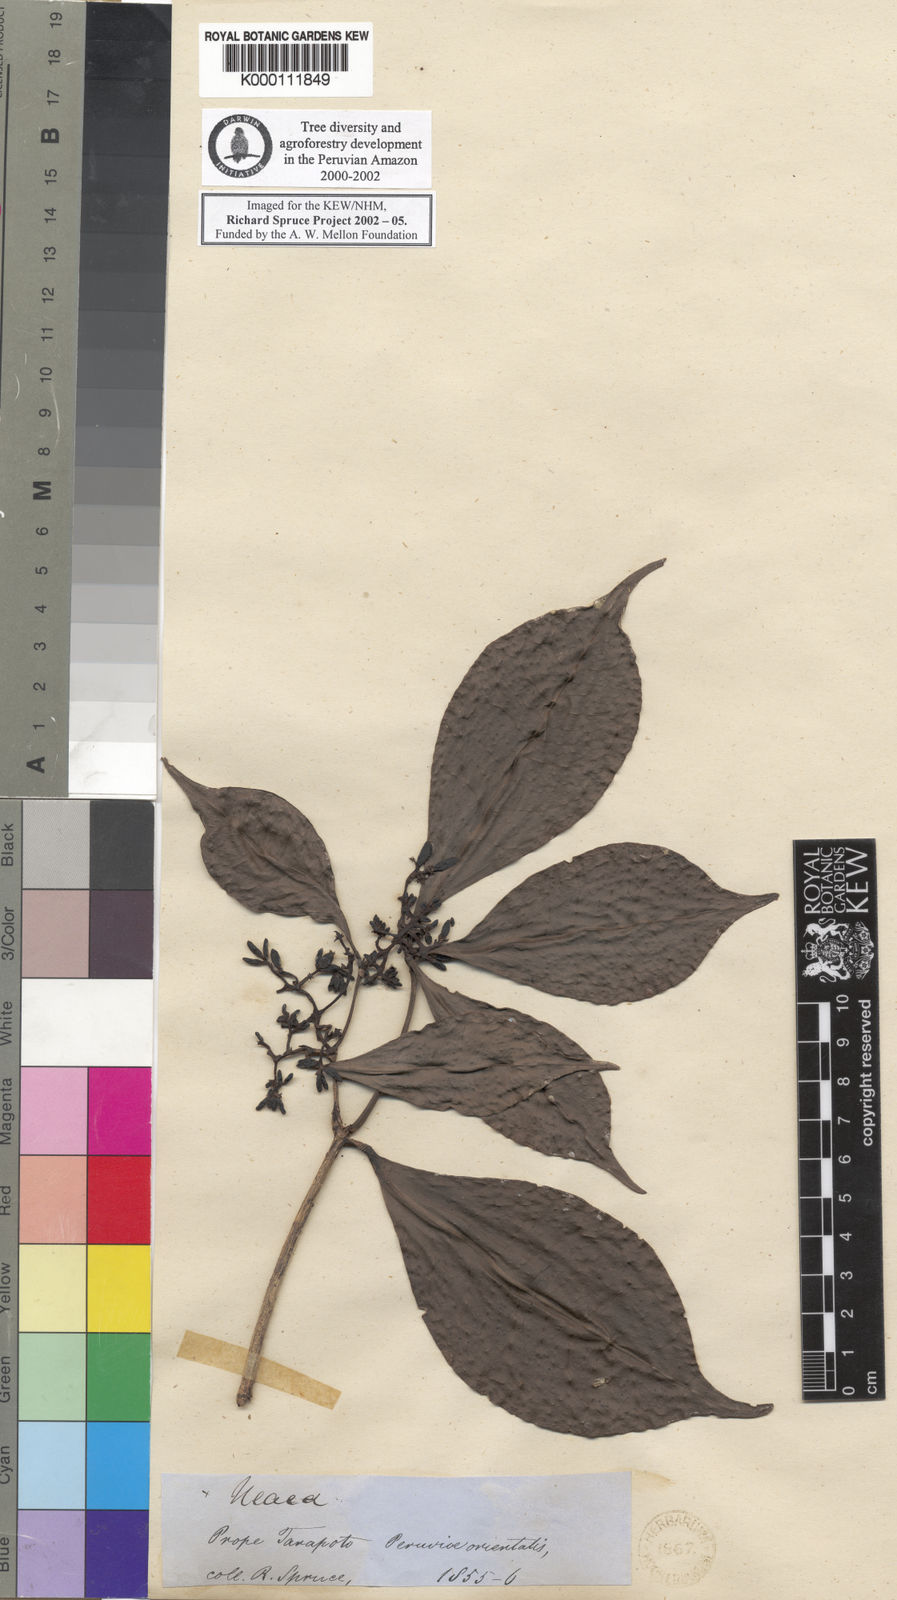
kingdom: Plantae
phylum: Tracheophyta
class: Magnoliopsida
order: Caryophyllales
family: Nyctaginaceae
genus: Neea
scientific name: Neea
